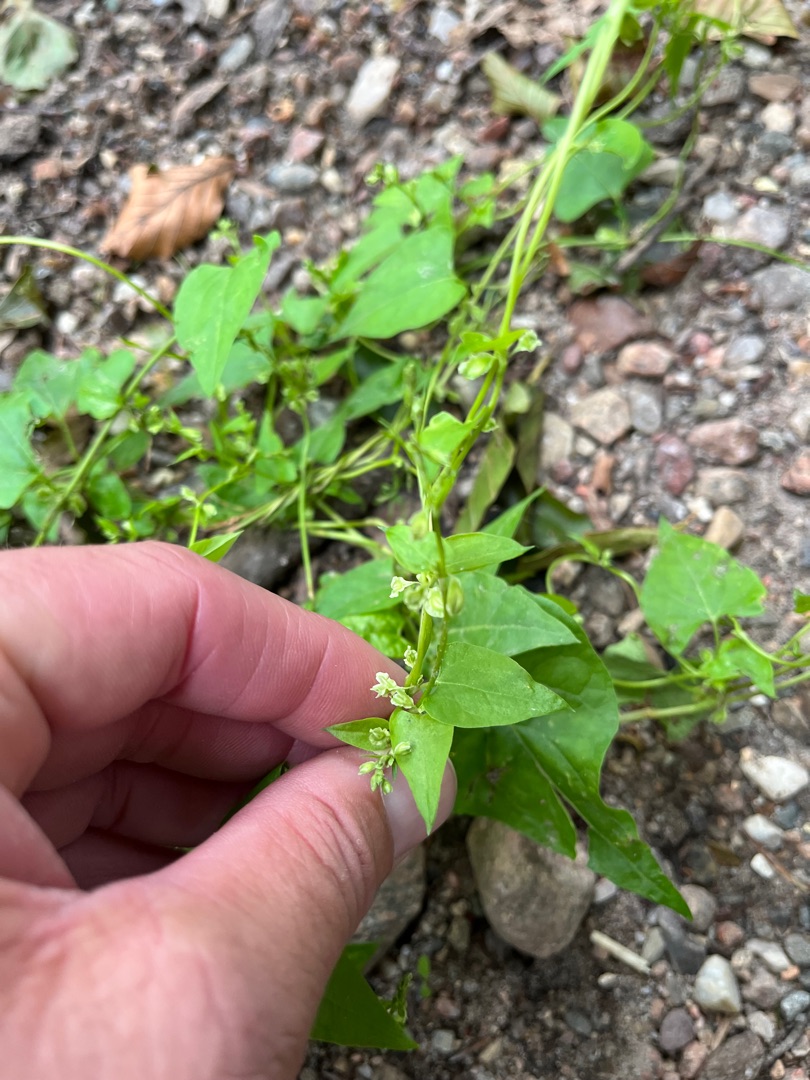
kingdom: Plantae
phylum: Tracheophyta
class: Magnoliopsida
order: Caryophyllales
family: Polygonaceae
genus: Fallopia
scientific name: Fallopia dumetorum
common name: Vinge-pileurt
